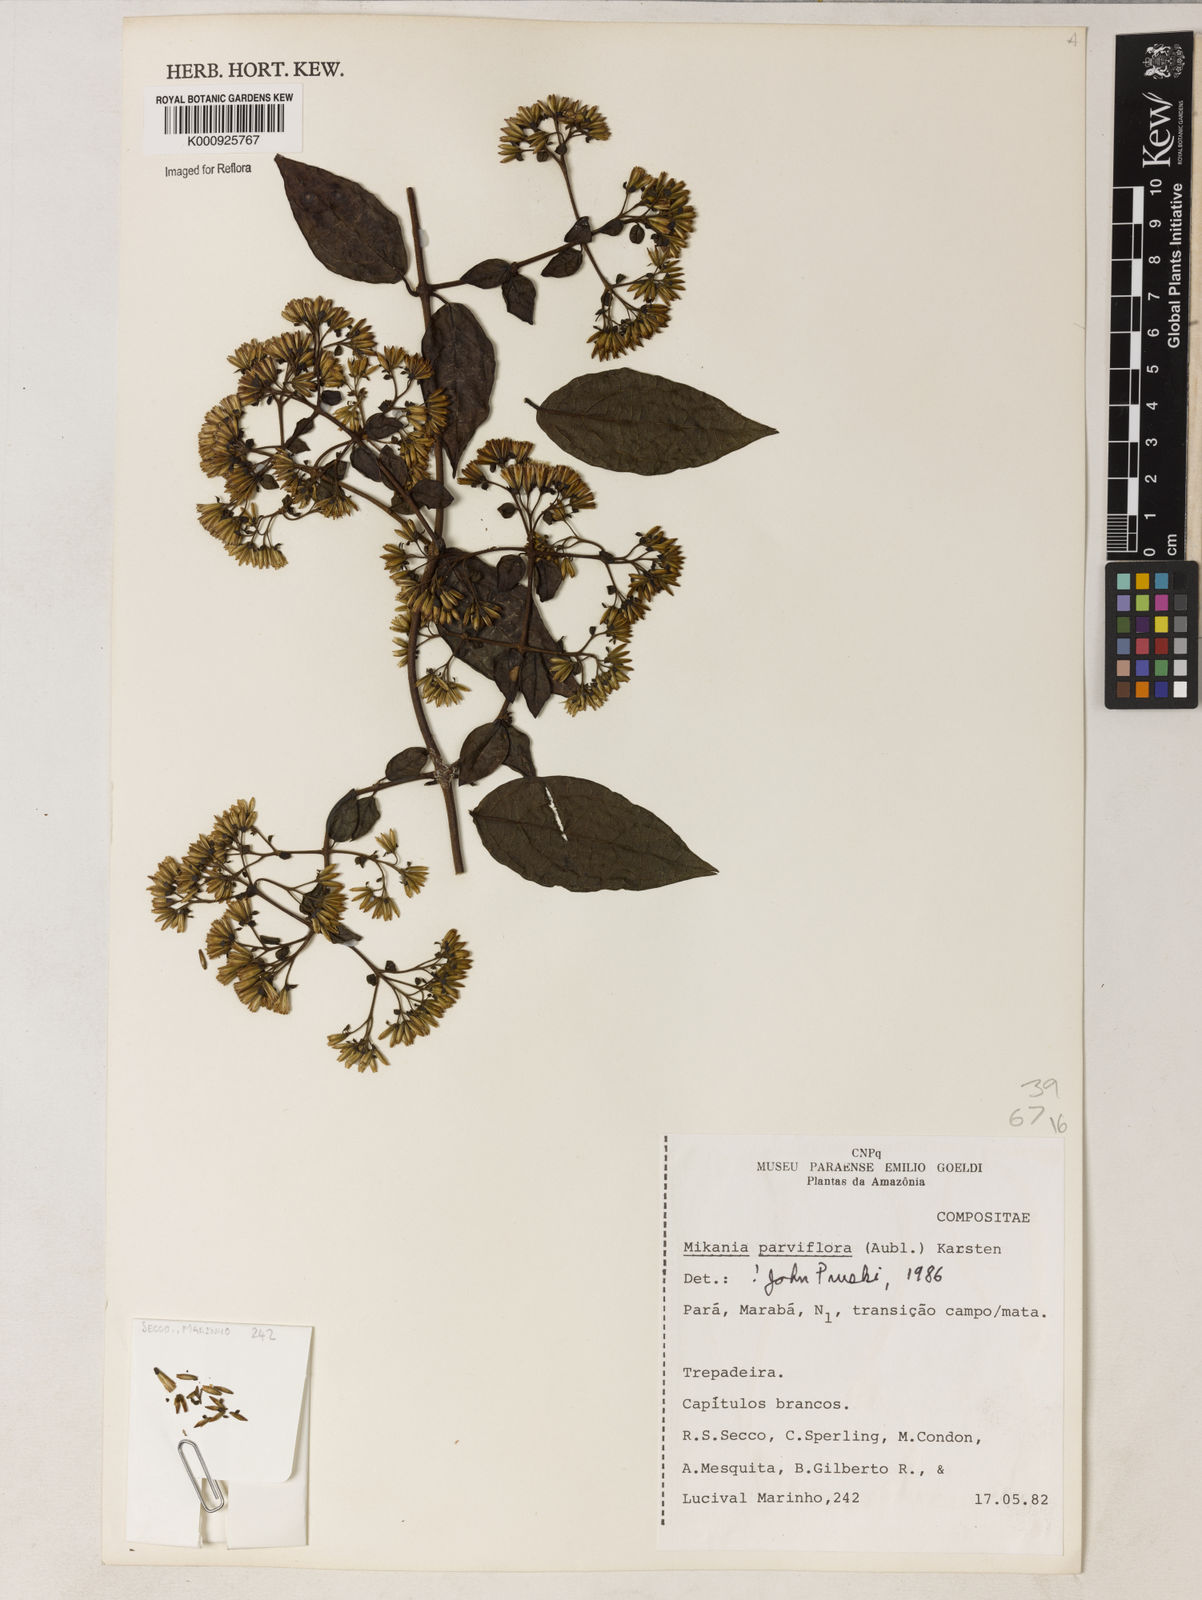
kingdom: Plantae
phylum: Tracheophyta
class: Magnoliopsida
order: Asterales
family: Asteraceae
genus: Mikania
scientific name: Mikania parvifolia
